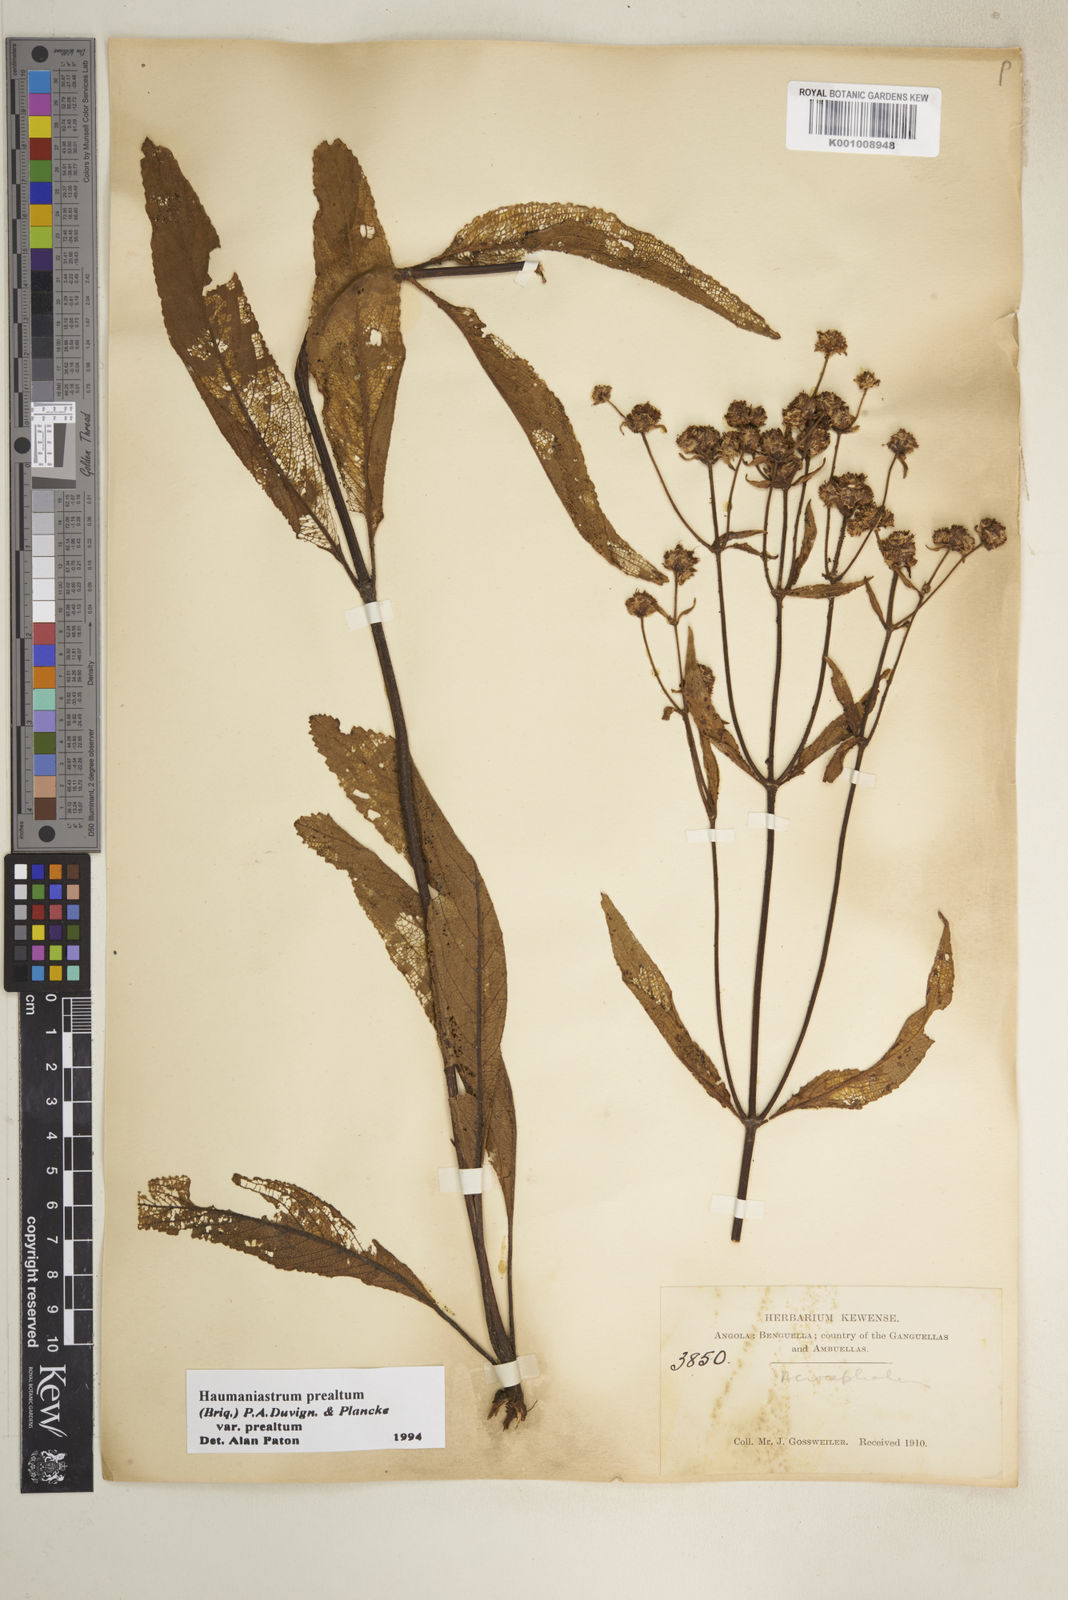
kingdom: Plantae
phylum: Tracheophyta
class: Magnoliopsida
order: Lamiales
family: Lamiaceae
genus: Haumaniastrum
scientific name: Haumaniastrum
